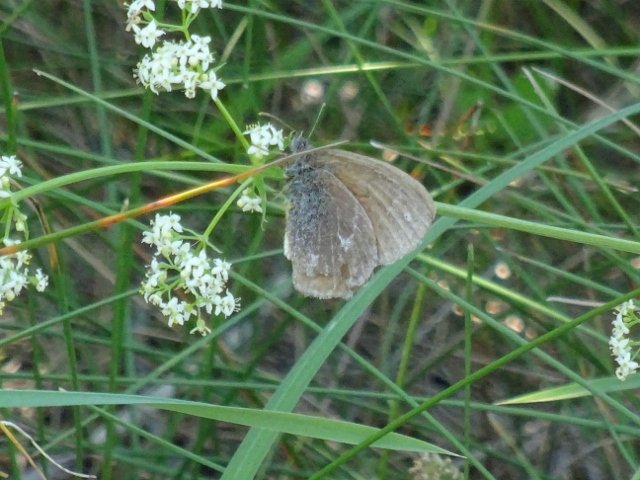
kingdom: Animalia
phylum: Arthropoda
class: Insecta
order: Lepidoptera
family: Nymphalidae
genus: Coenonympha
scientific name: Coenonympha tullia
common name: Large Heath
